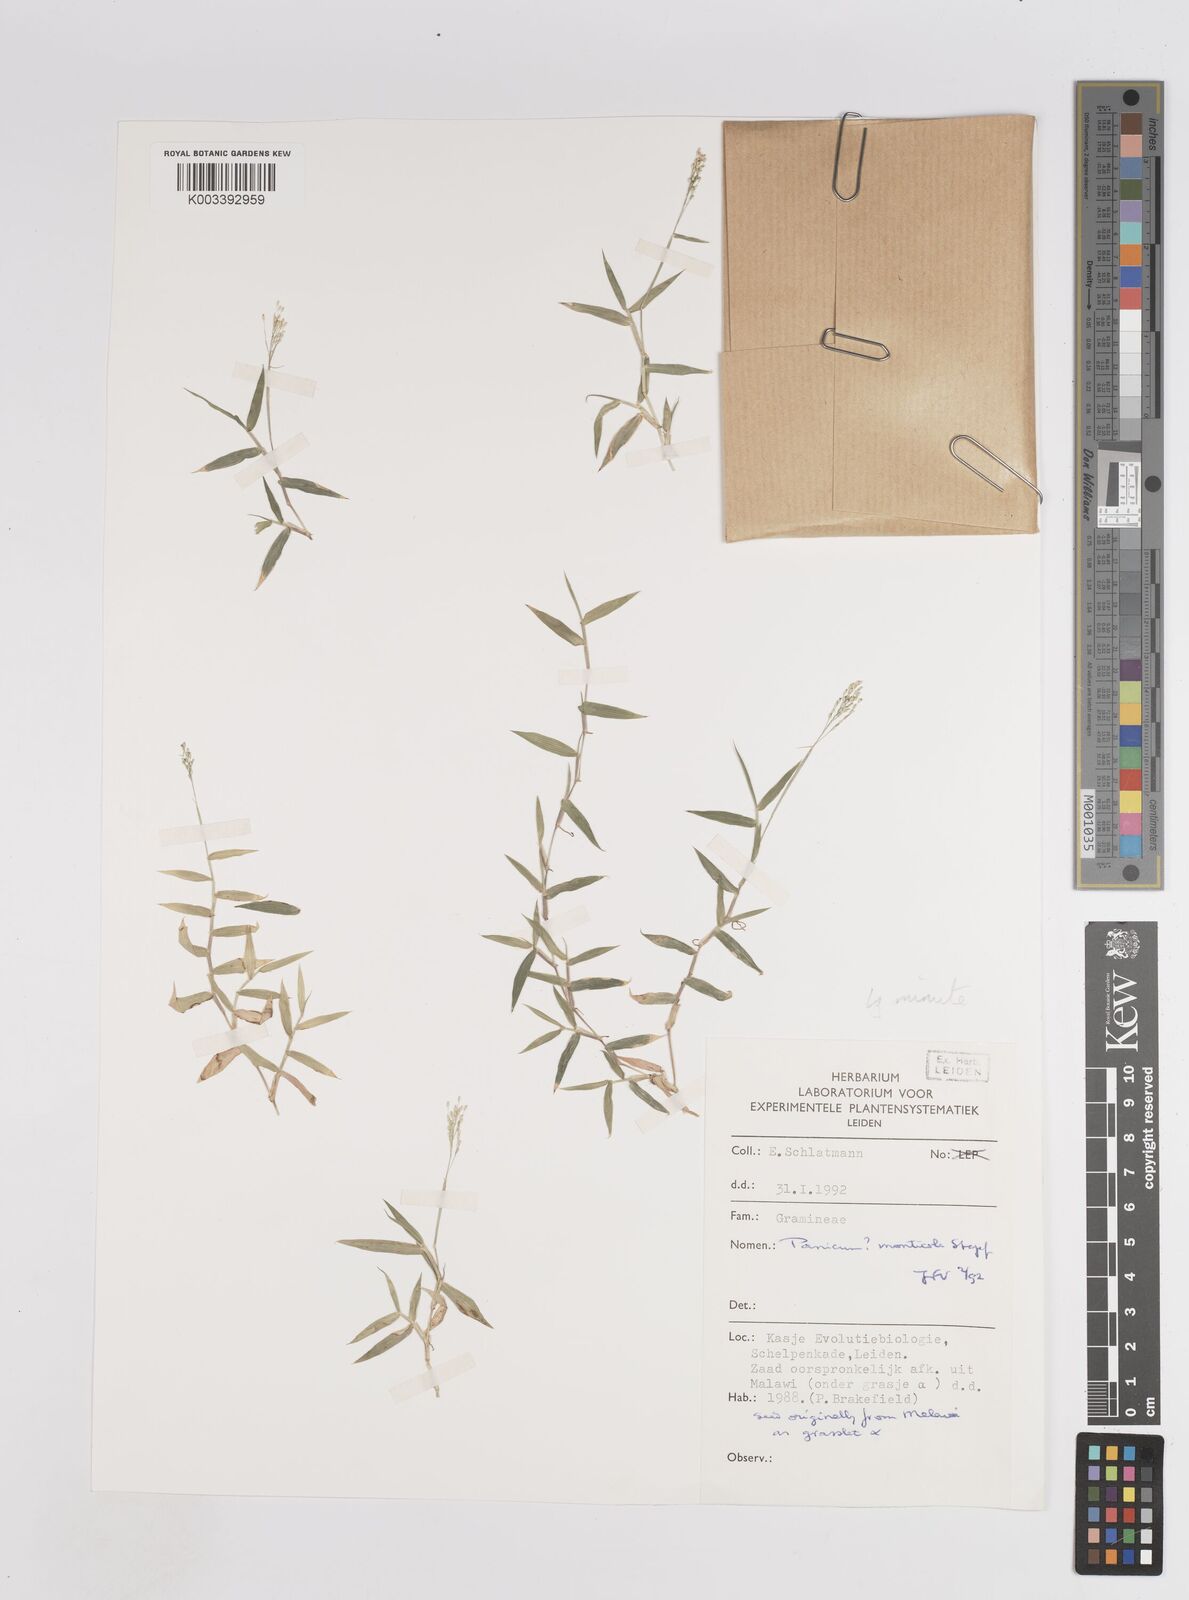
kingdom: Plantae
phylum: Tracheophyta
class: Liliopsida
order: Poales
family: Poaceae
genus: Panicum
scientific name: Panicum monticola
